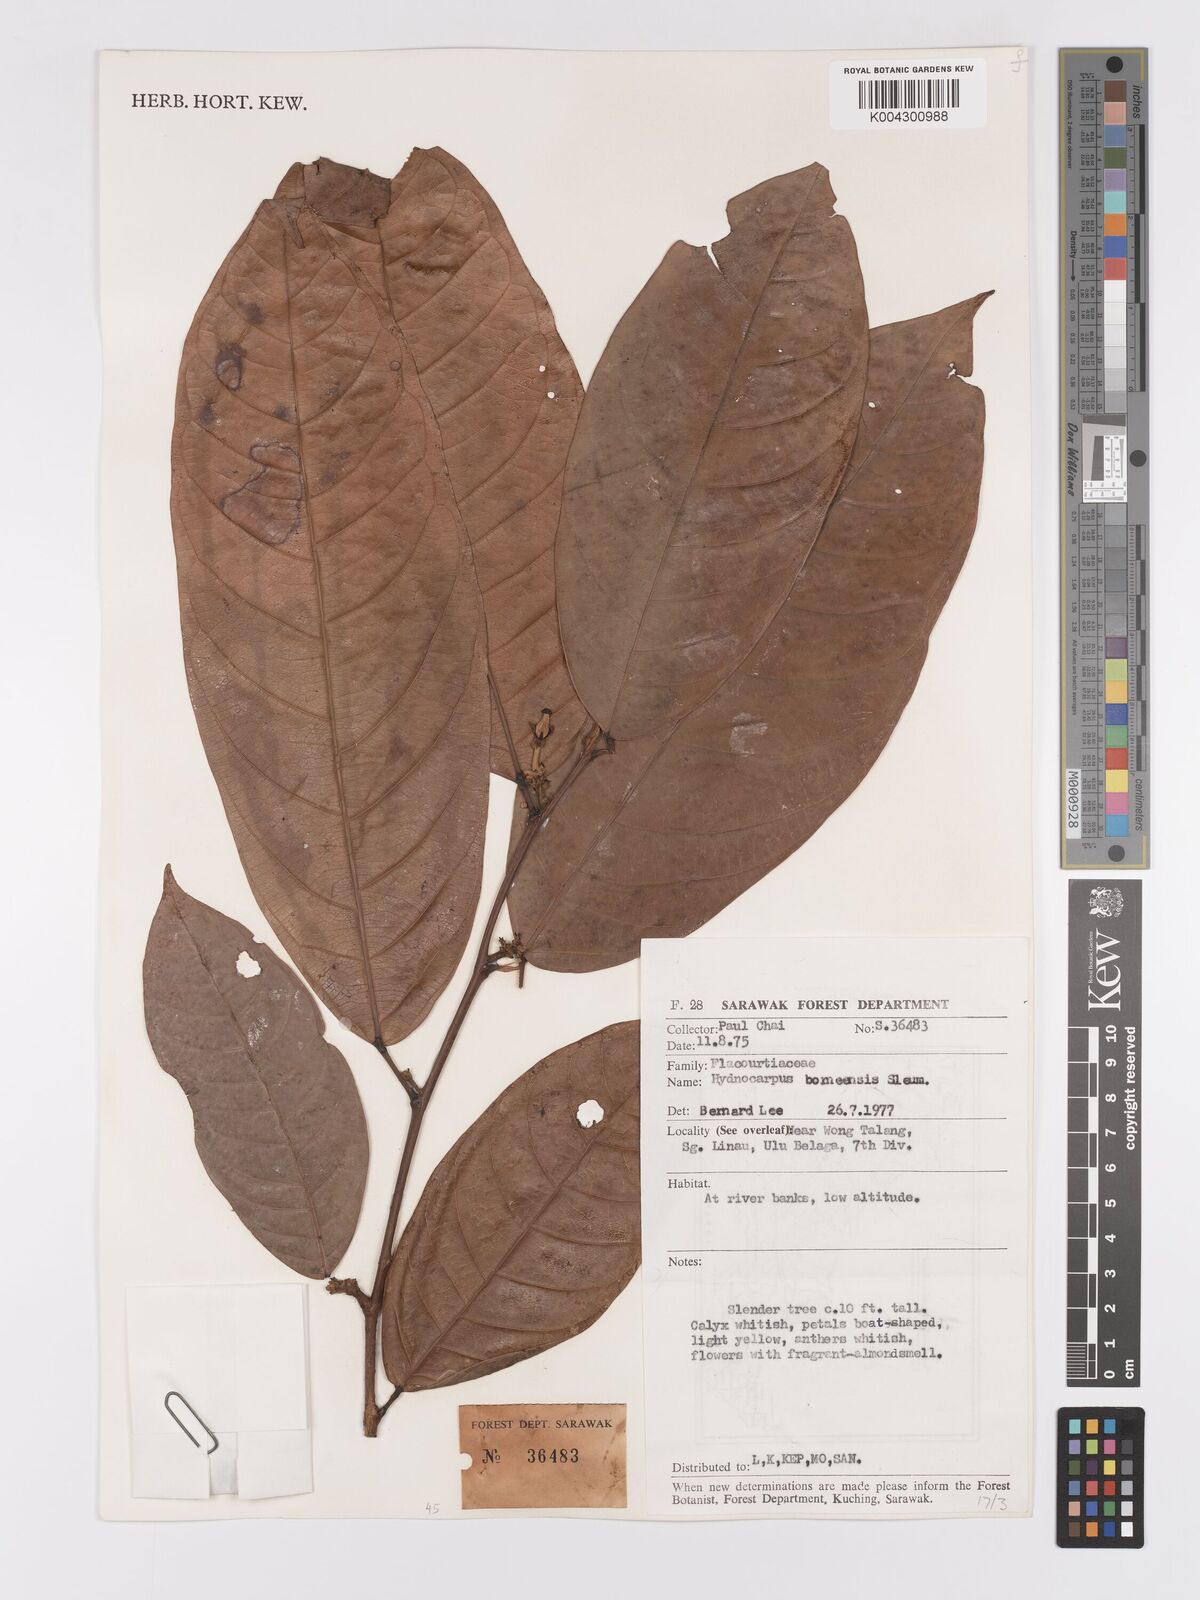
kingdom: Plantae
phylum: Tracheophyta
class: Magnoliopsida
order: Malpighiales
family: Achariaceae
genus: Hydnocarpus
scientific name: Hydnocarpus borneensis
